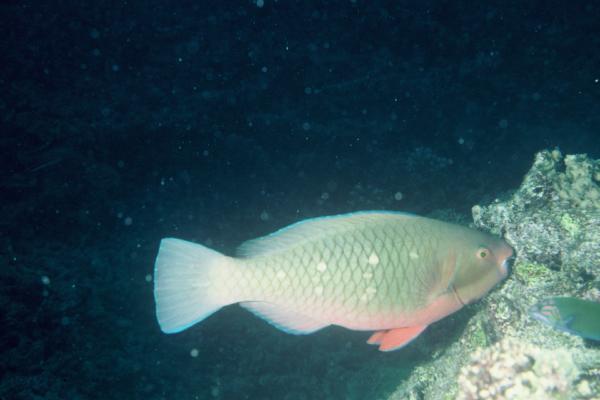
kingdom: Animalia
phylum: Chordata
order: Perciformes
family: Scaridae
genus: Scarus
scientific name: Scarus persicus
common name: Gulf parrotfish
